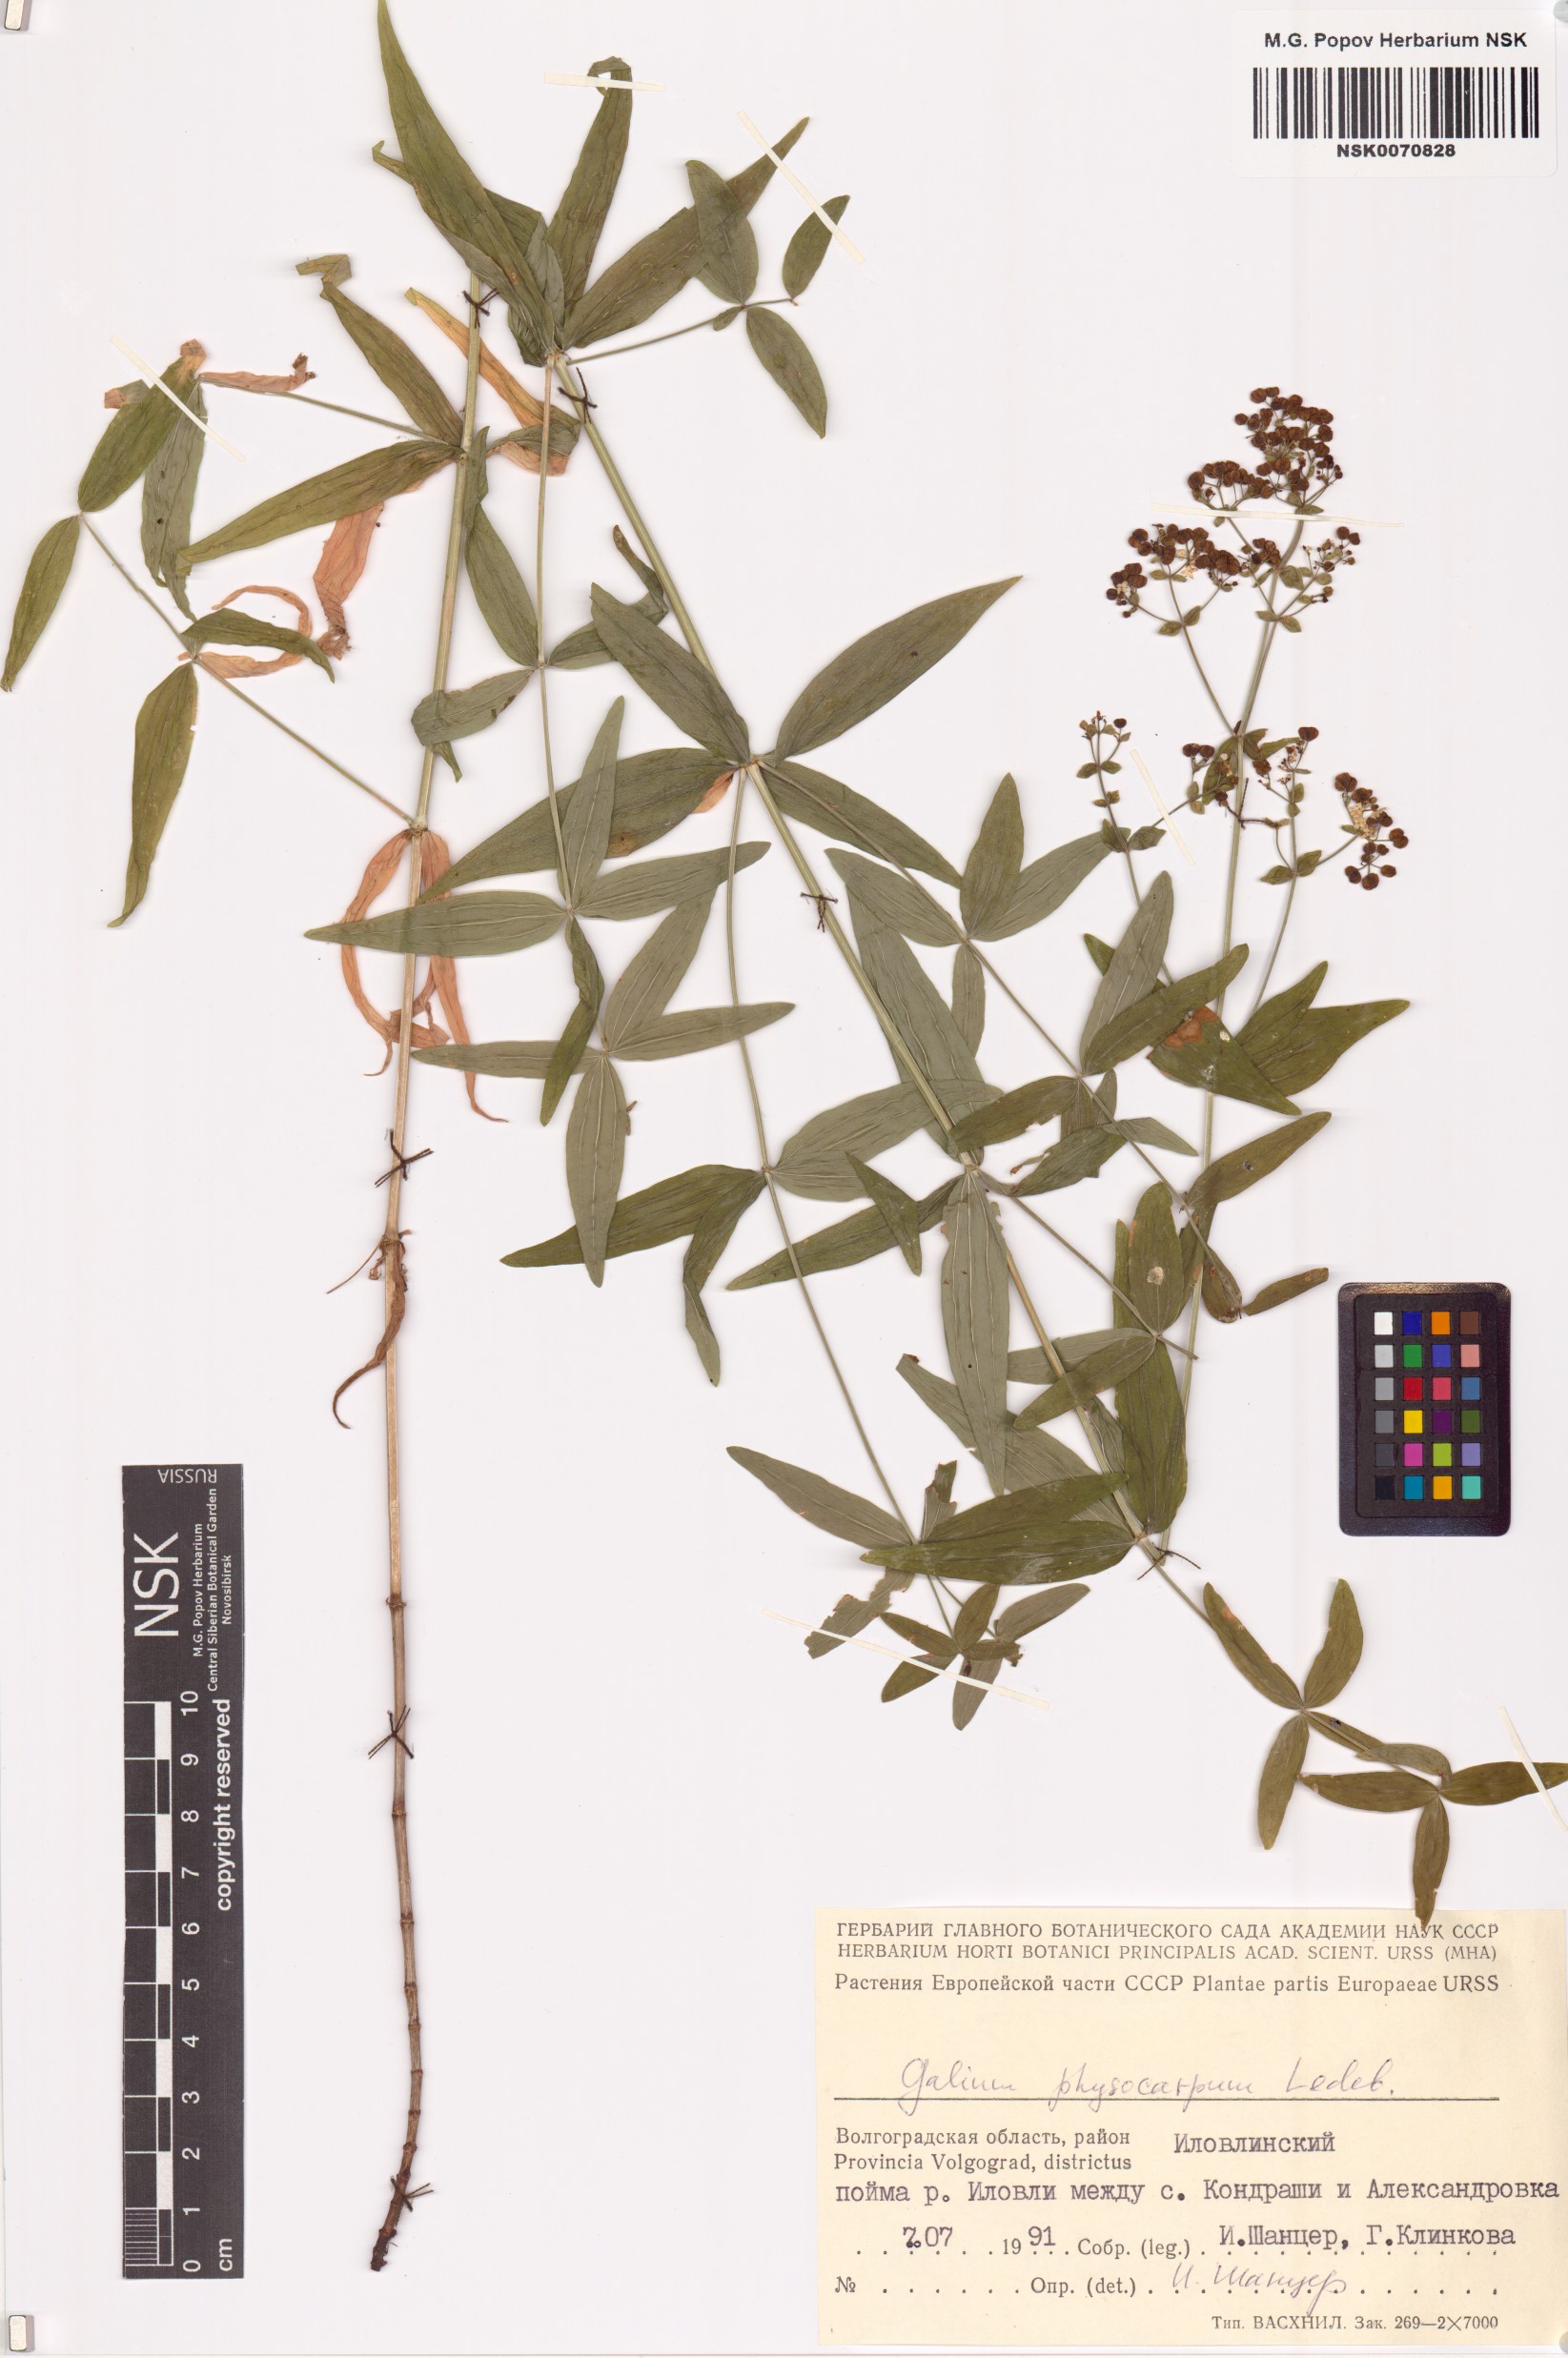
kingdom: Plantae
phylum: Tracheophyta
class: Magnoliopsida
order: Gentianales
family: Rubiaceae
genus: Galium
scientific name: Galium rubioides
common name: European bedstraw
